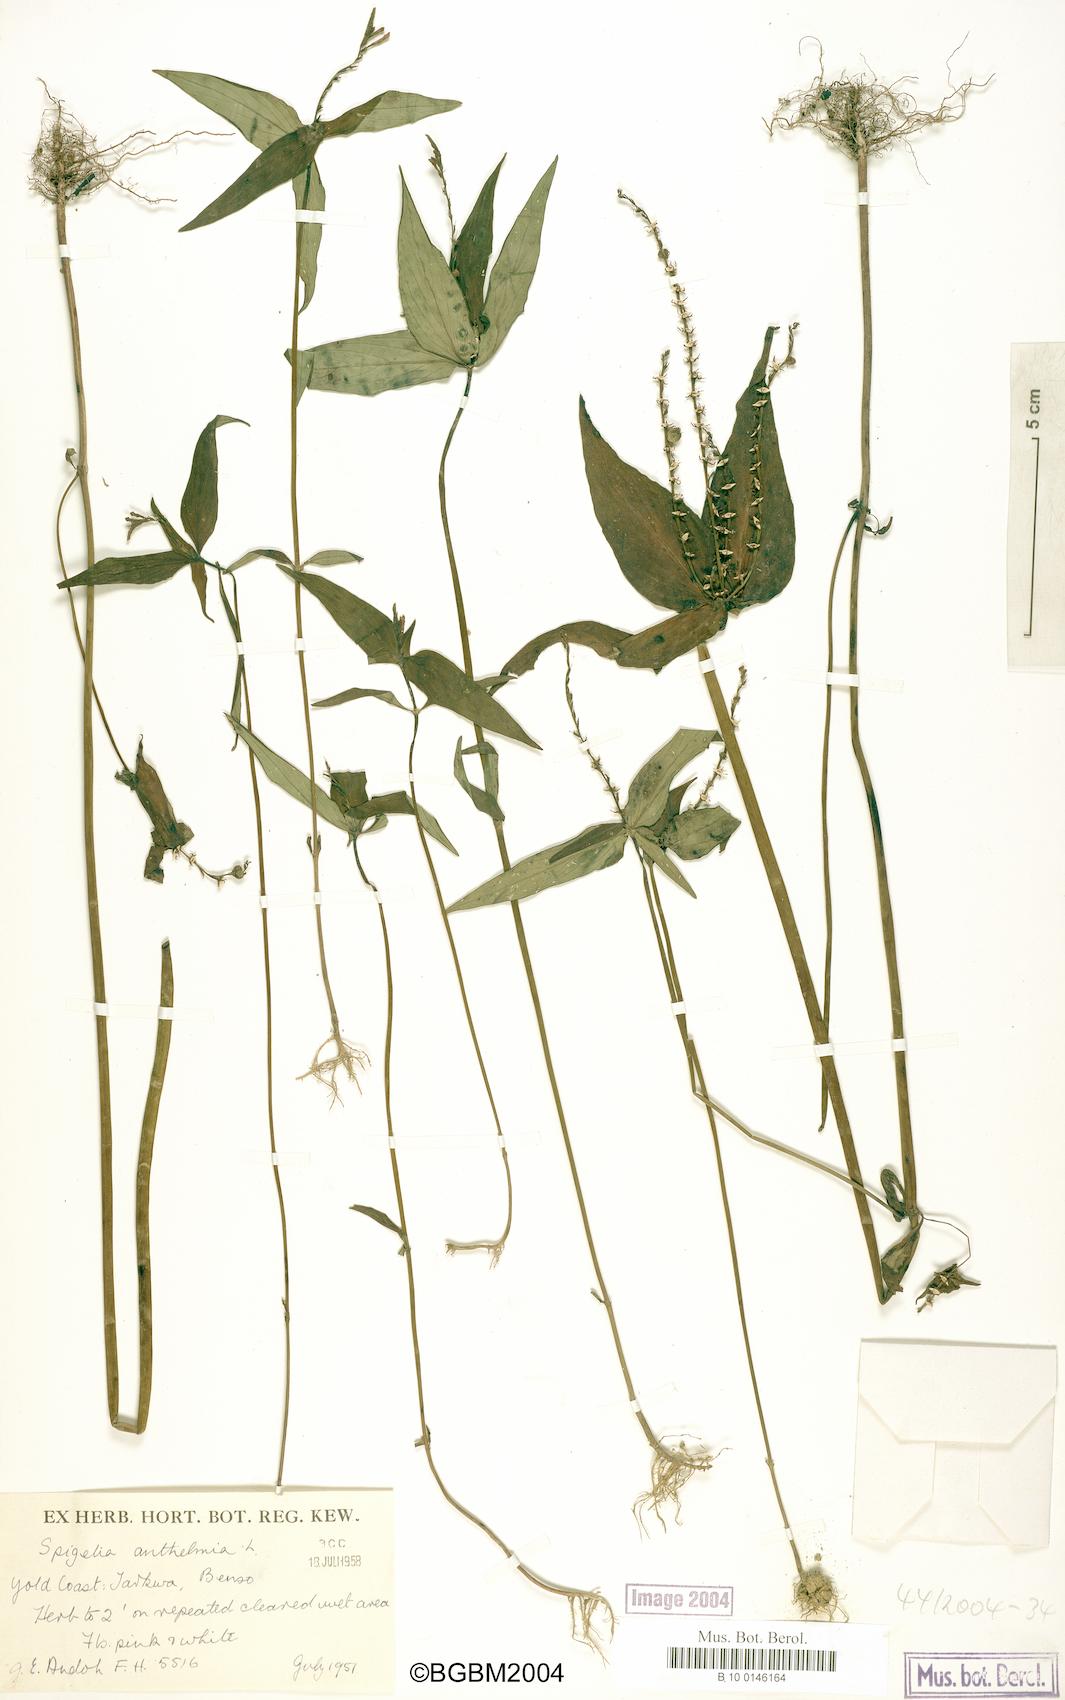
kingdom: Plantae
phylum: Tracheophyta
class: Magnoliopsida
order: Gentianales
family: Loganiaceae
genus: Spigelia
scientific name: Spigelia anthelmia
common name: West indian-pink
